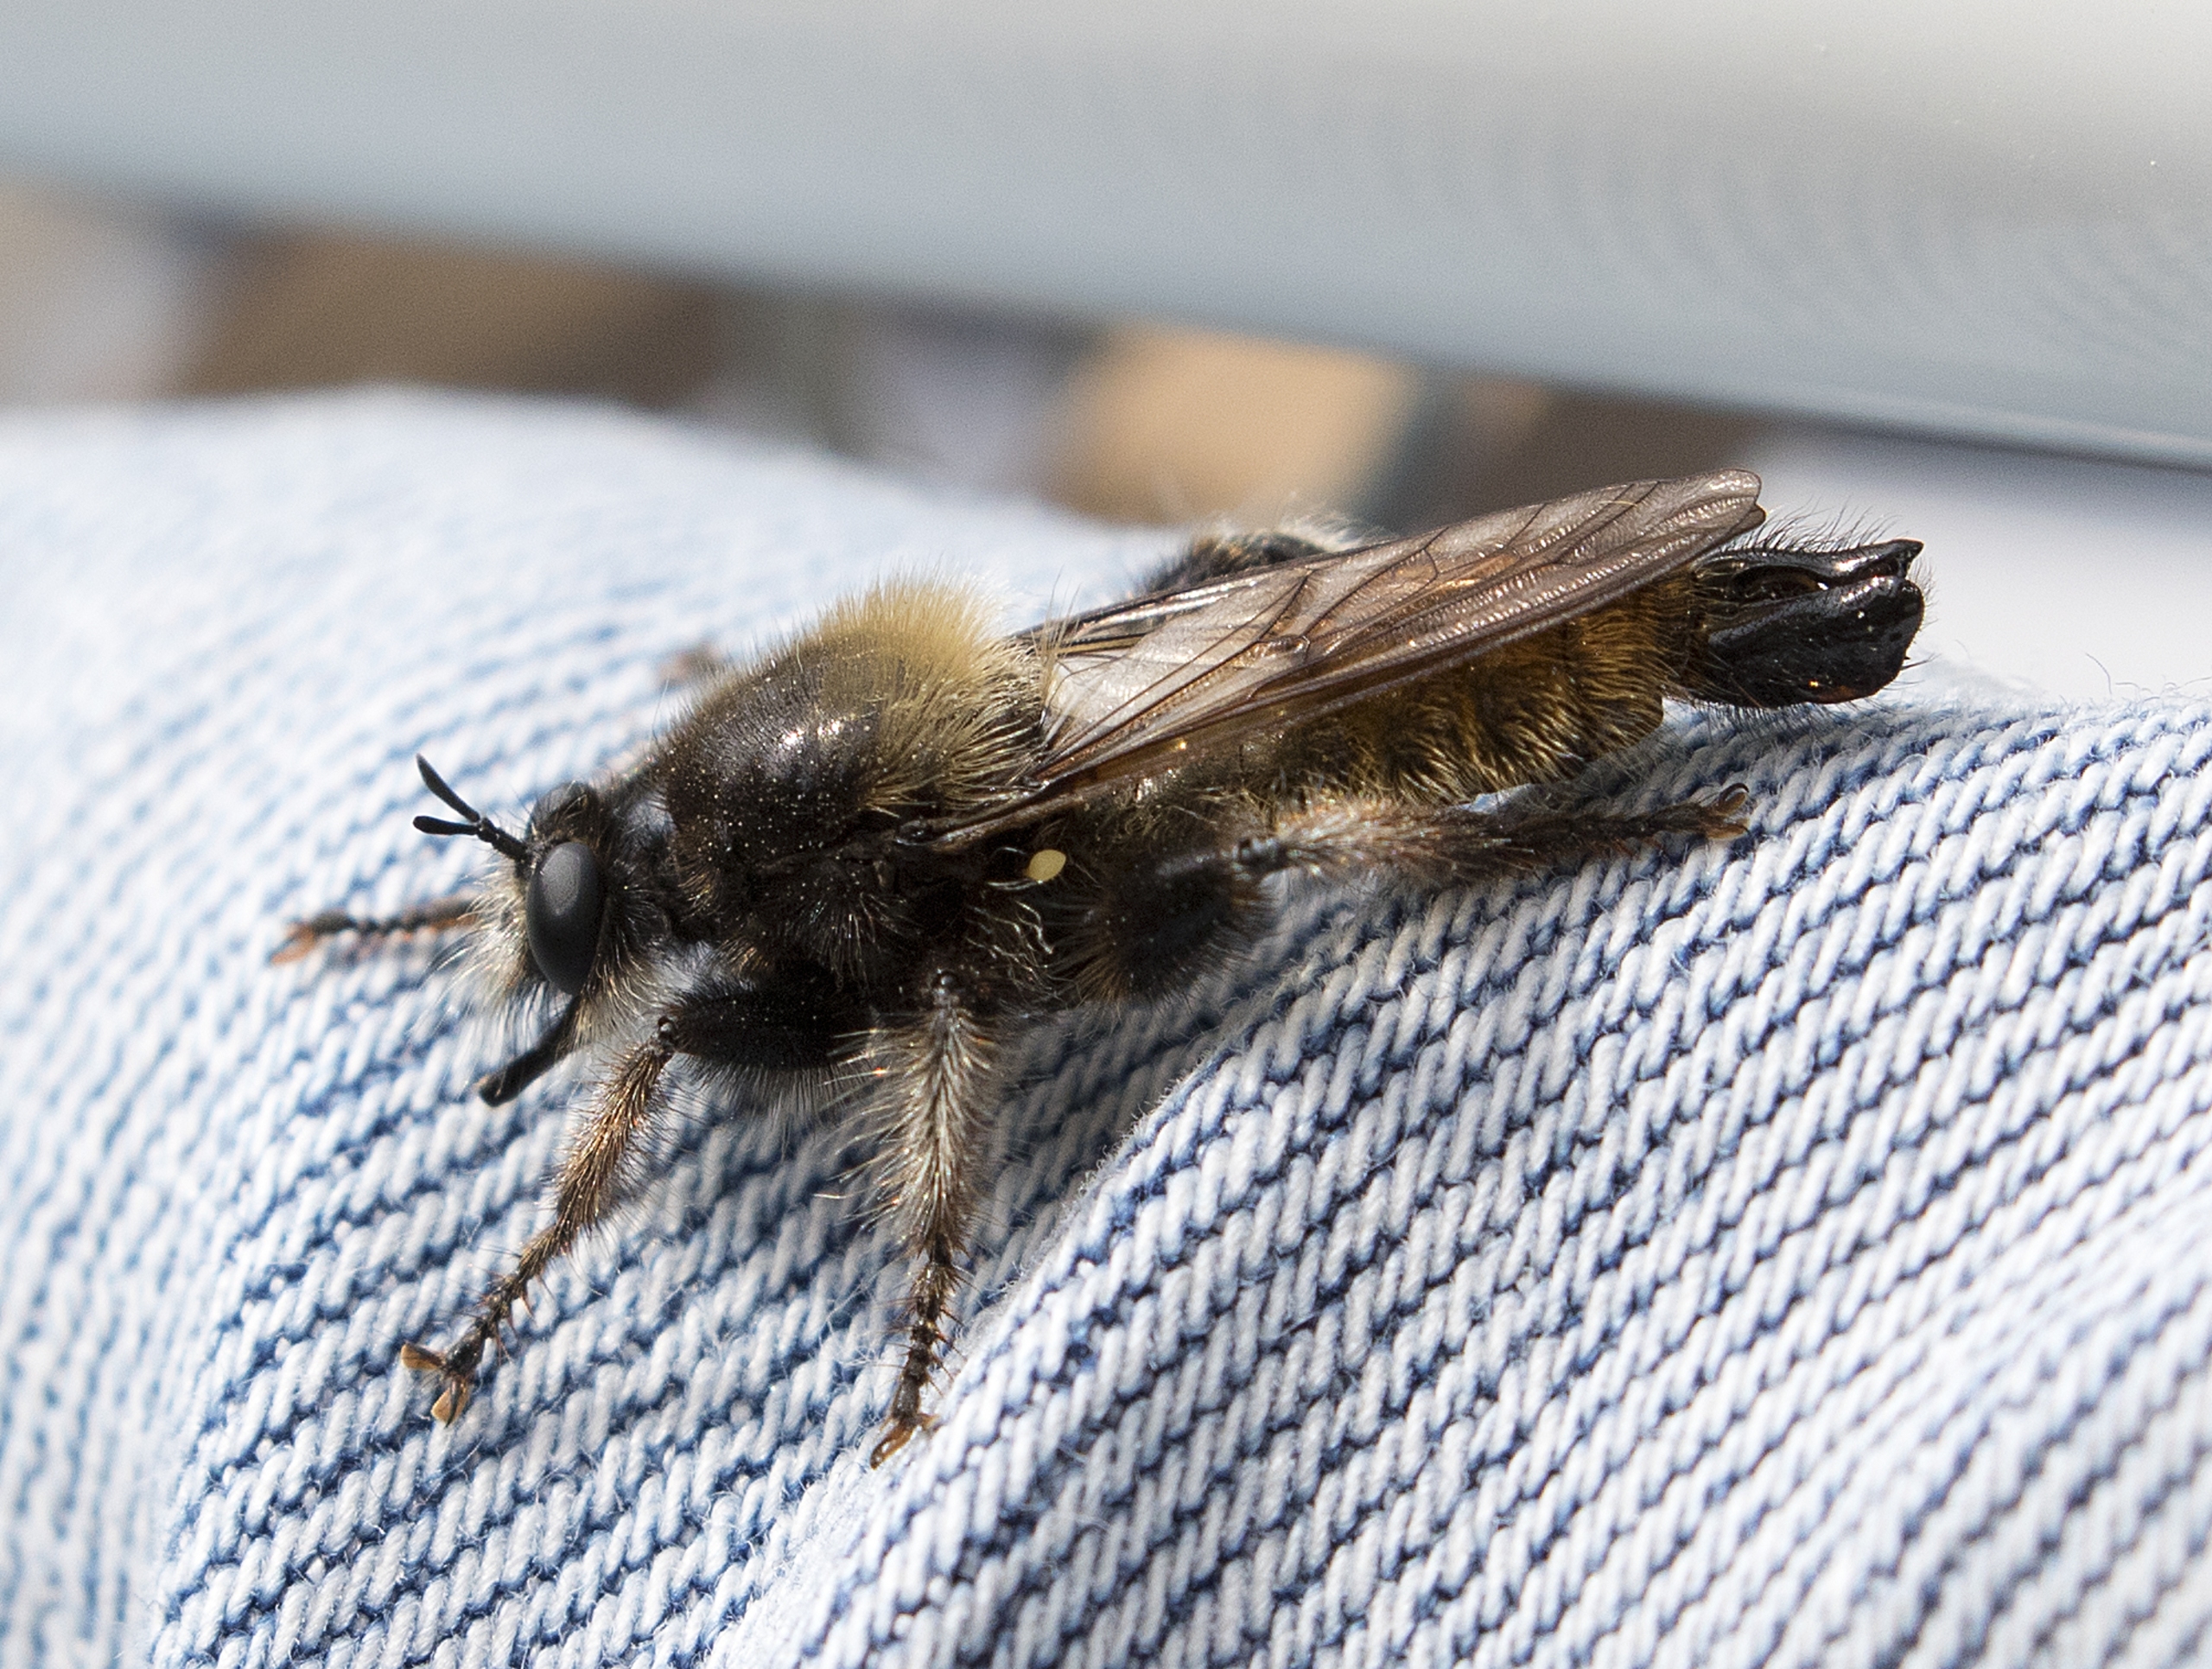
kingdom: Animalia
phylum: Arthropoda
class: Insecta
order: Diptera
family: Asilidae
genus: Laphria
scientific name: Laphria flava
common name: Gul vedrovflue
